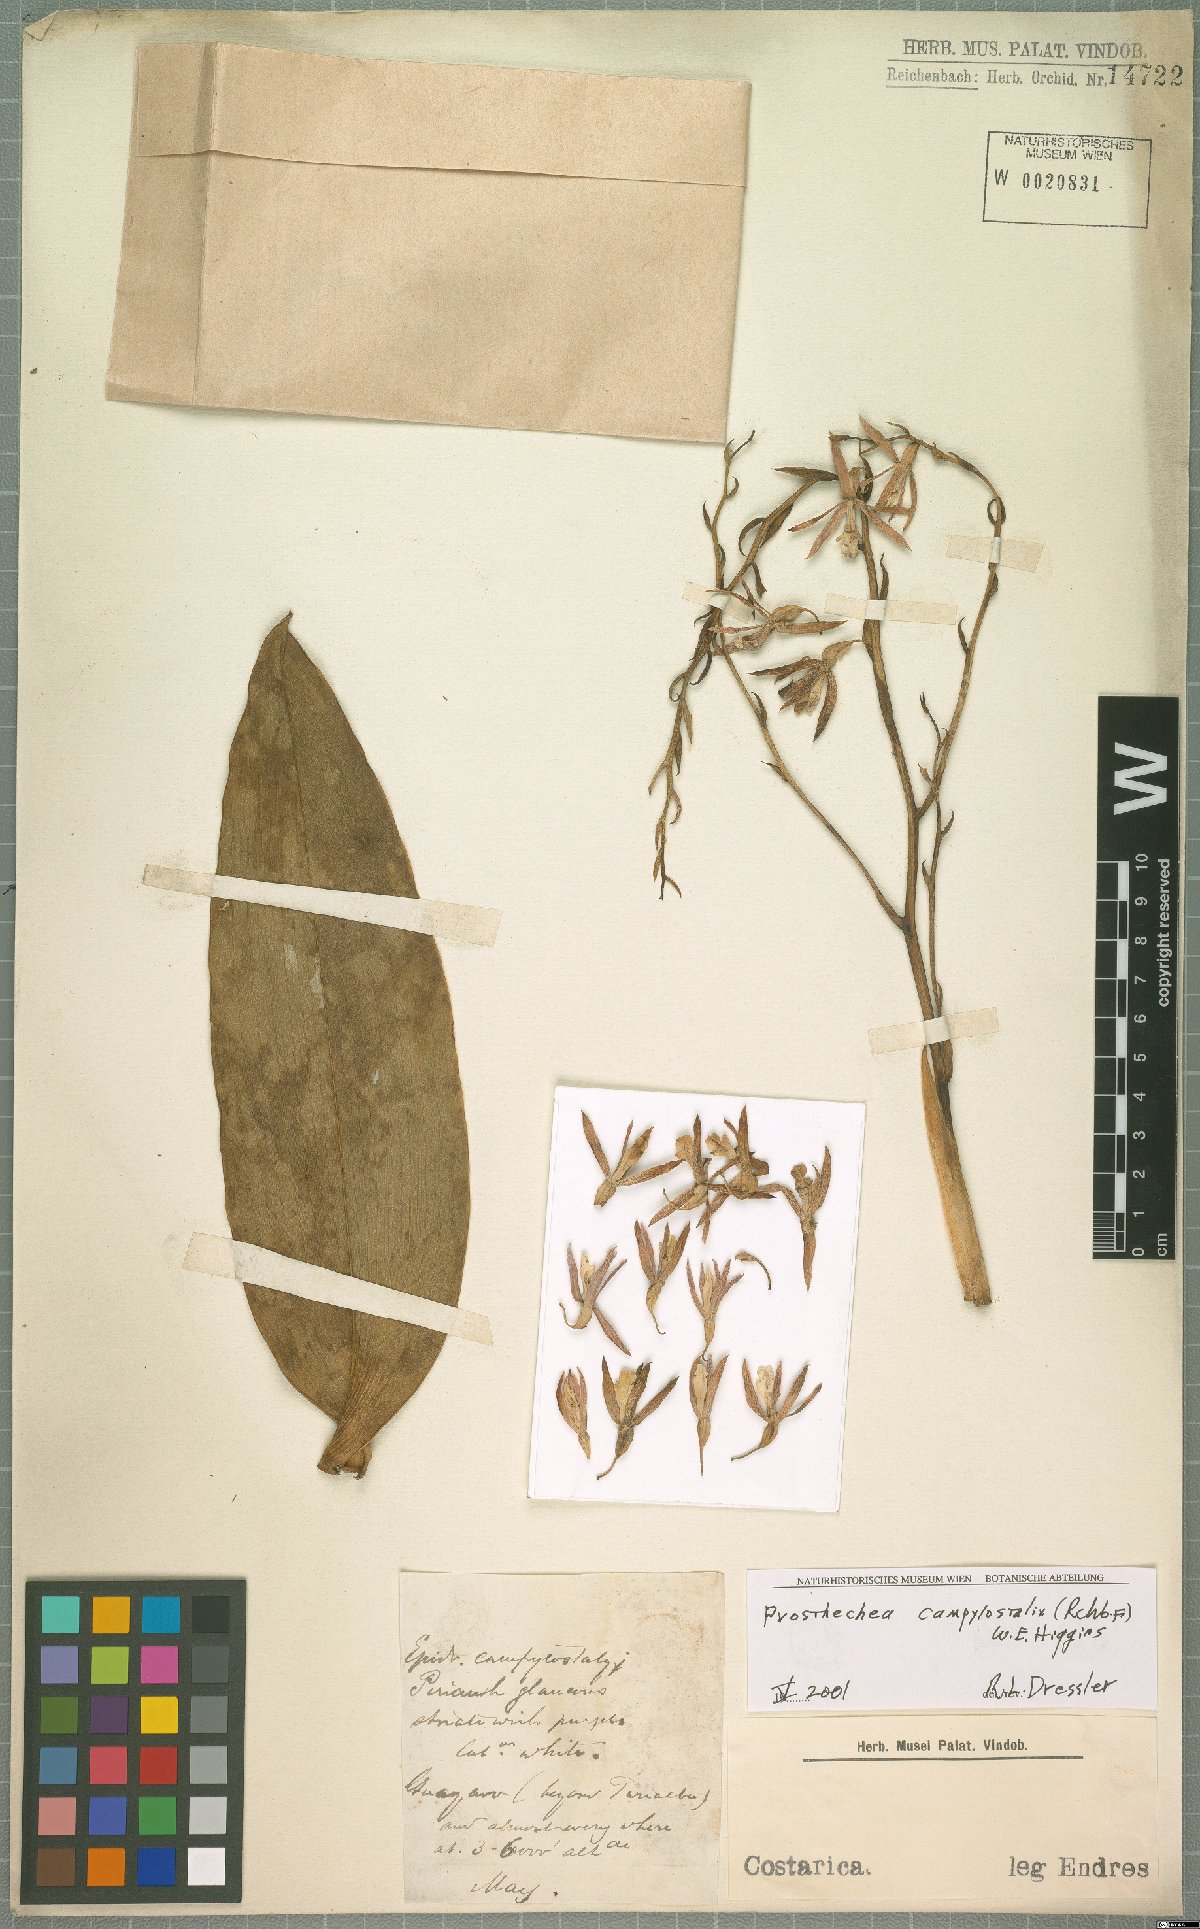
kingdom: Plantae
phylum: Tracheophyta
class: Liliopsida
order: Asparagales
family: Orchidaceae
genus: Prosthechea
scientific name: Prosthechea campylostalix
